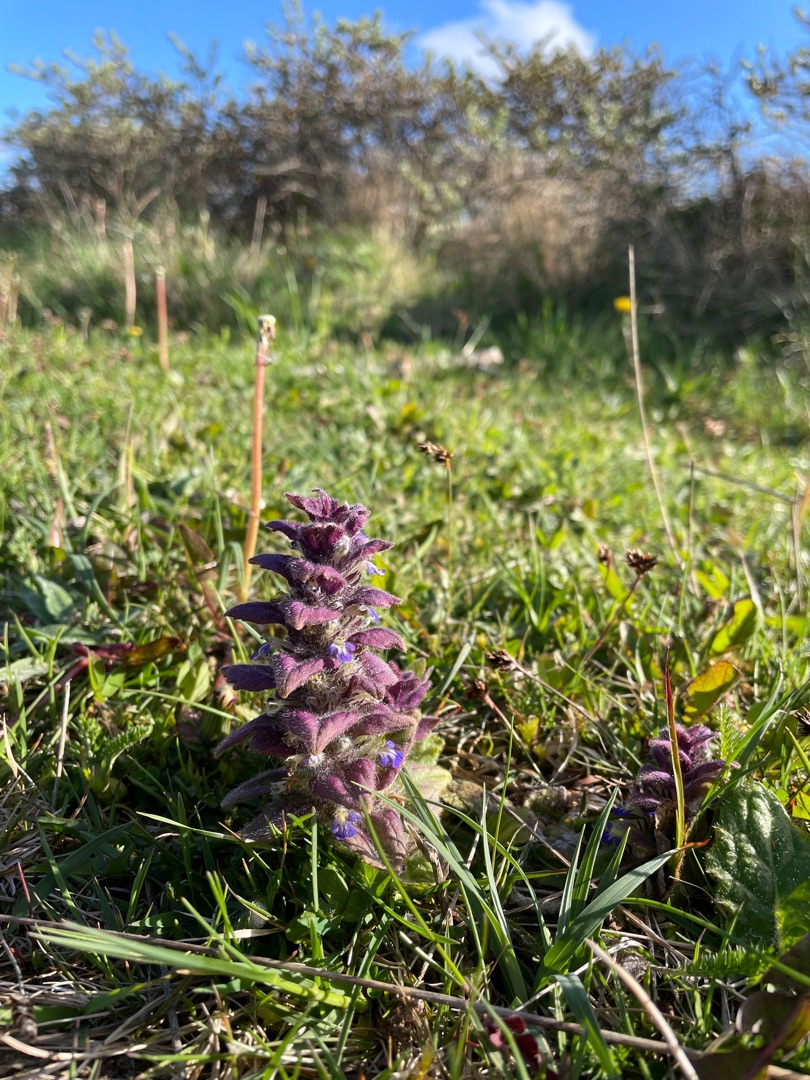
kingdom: Plantae
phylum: Tracheophyta
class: Magnoliopsida
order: Lamiales
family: Lamiaceae
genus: Ajuga
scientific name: Ajuga pyramidalis
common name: Pyramide-læbeløs
